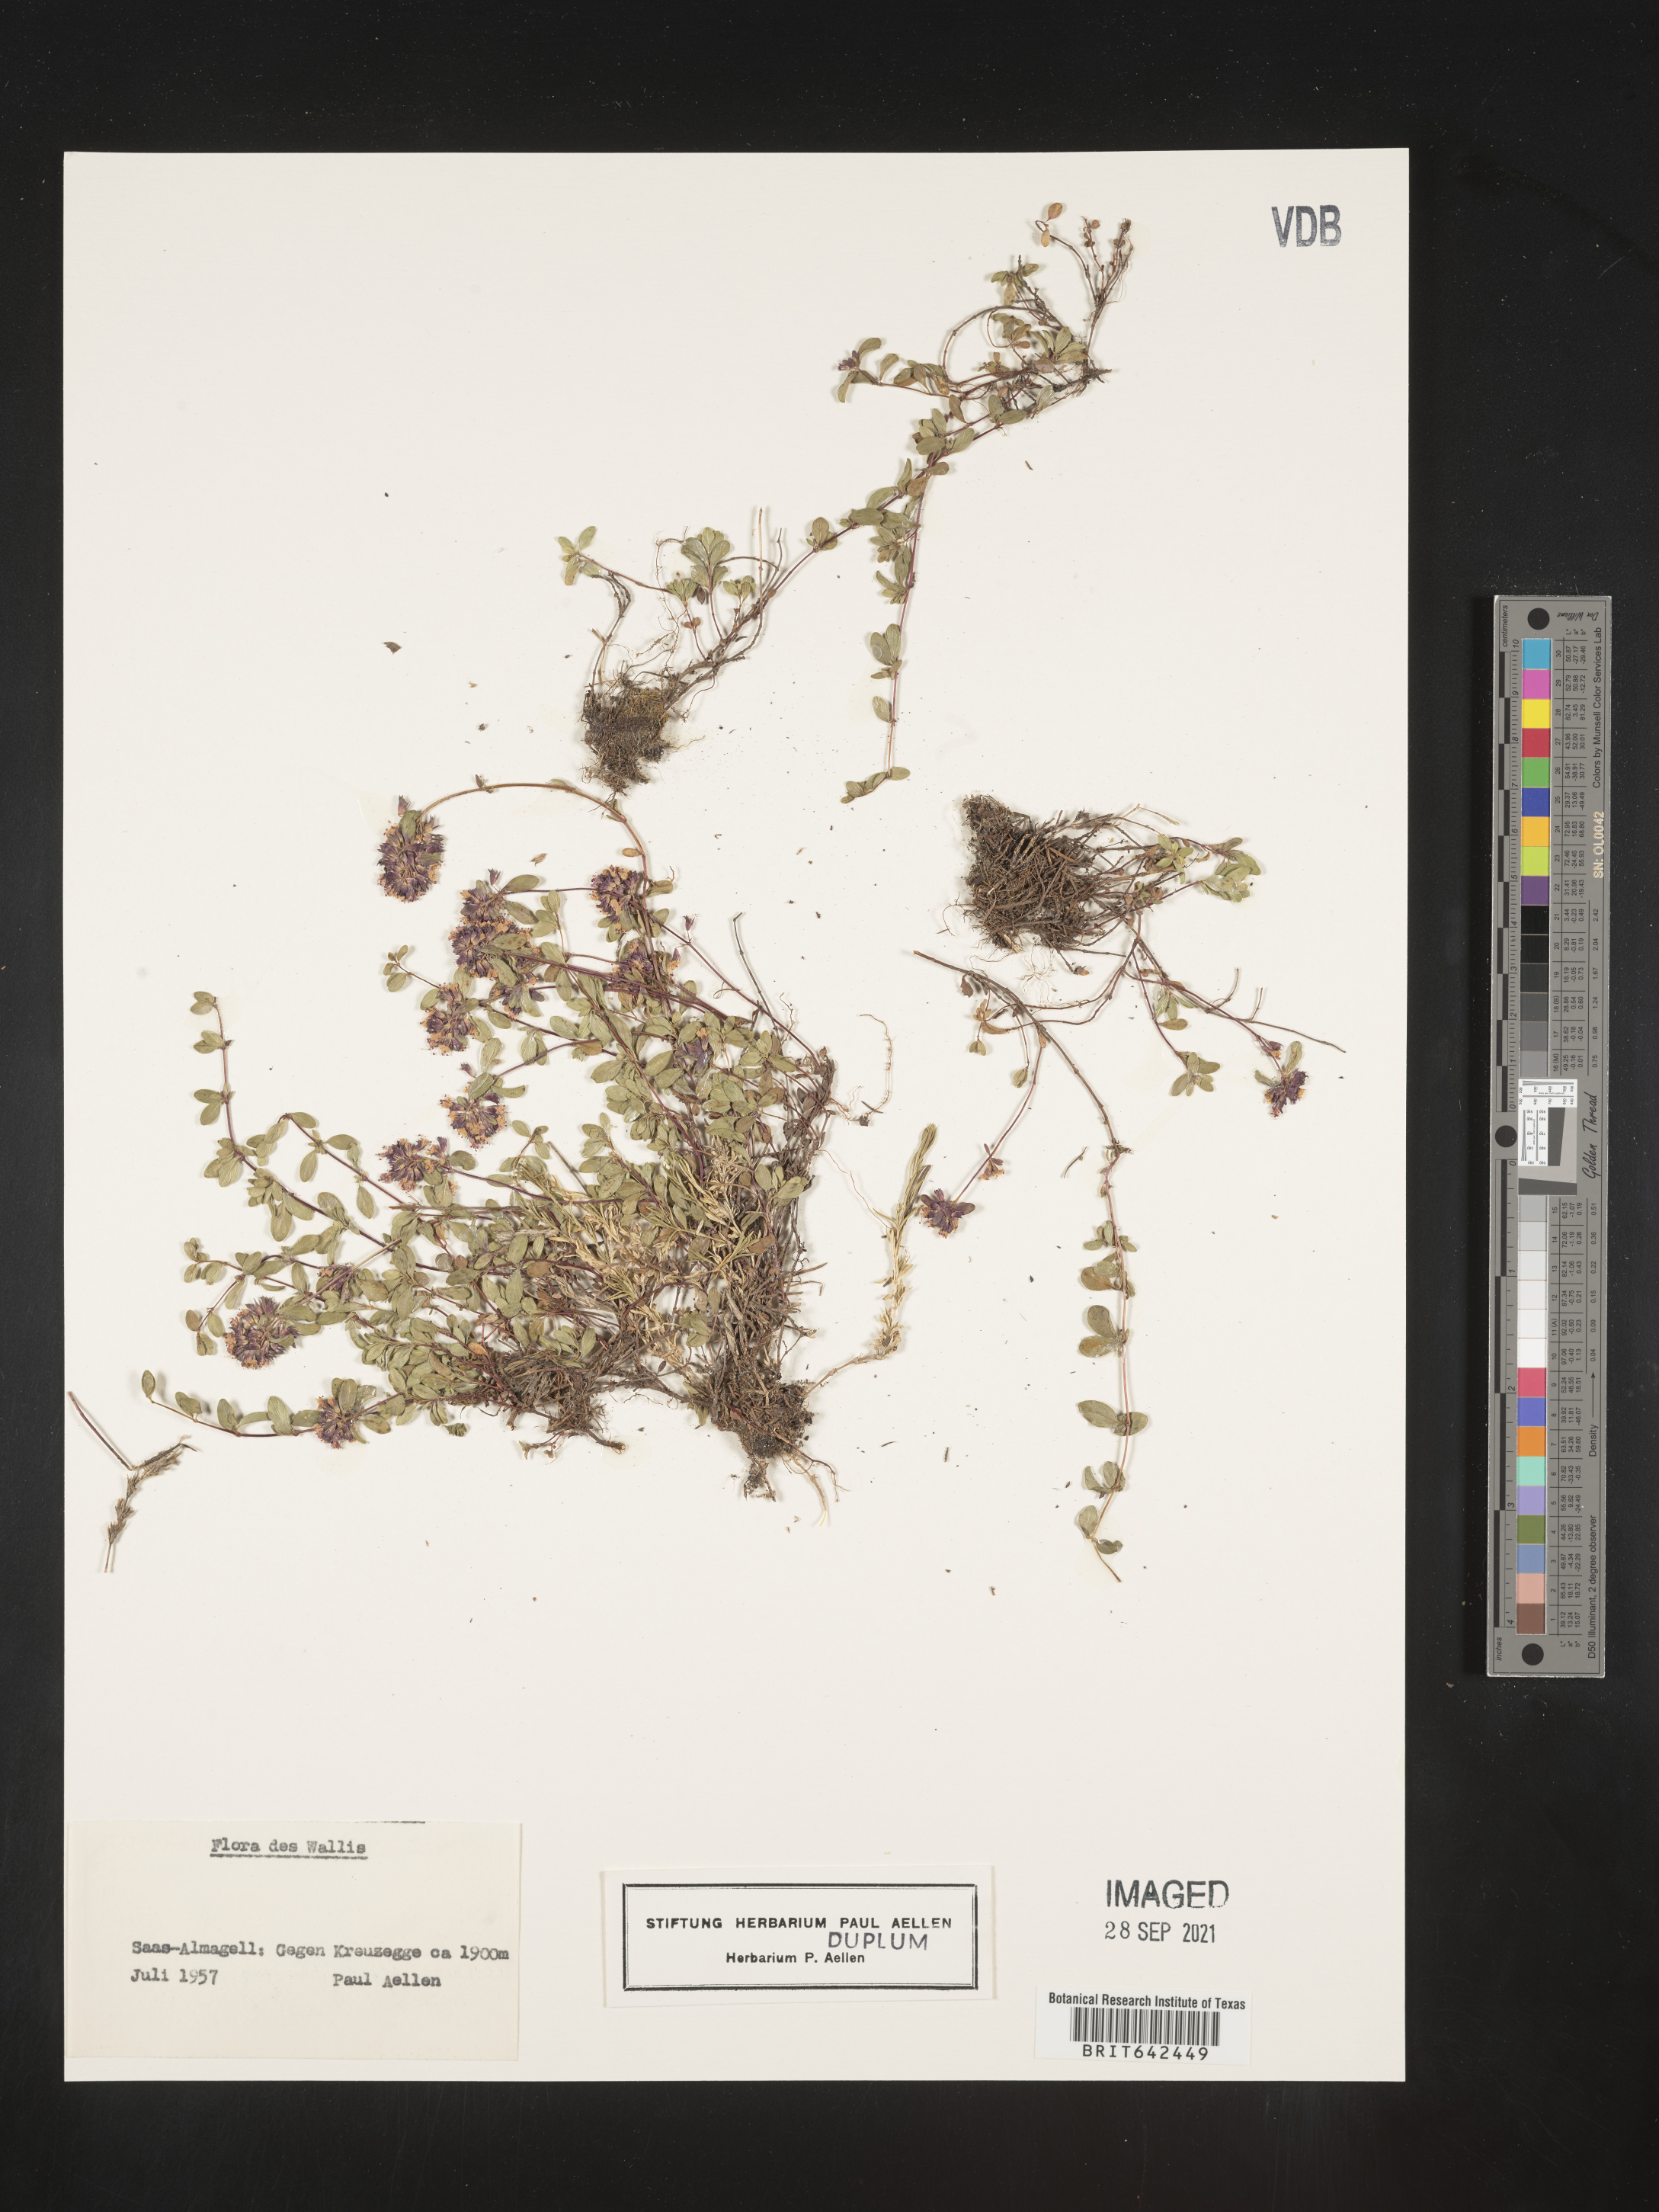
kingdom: Plantae
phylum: Tracheophyta
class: Magnoliopsida
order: Lamiales
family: Orobanchaceae
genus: Euphrasia
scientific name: Euphrasia
